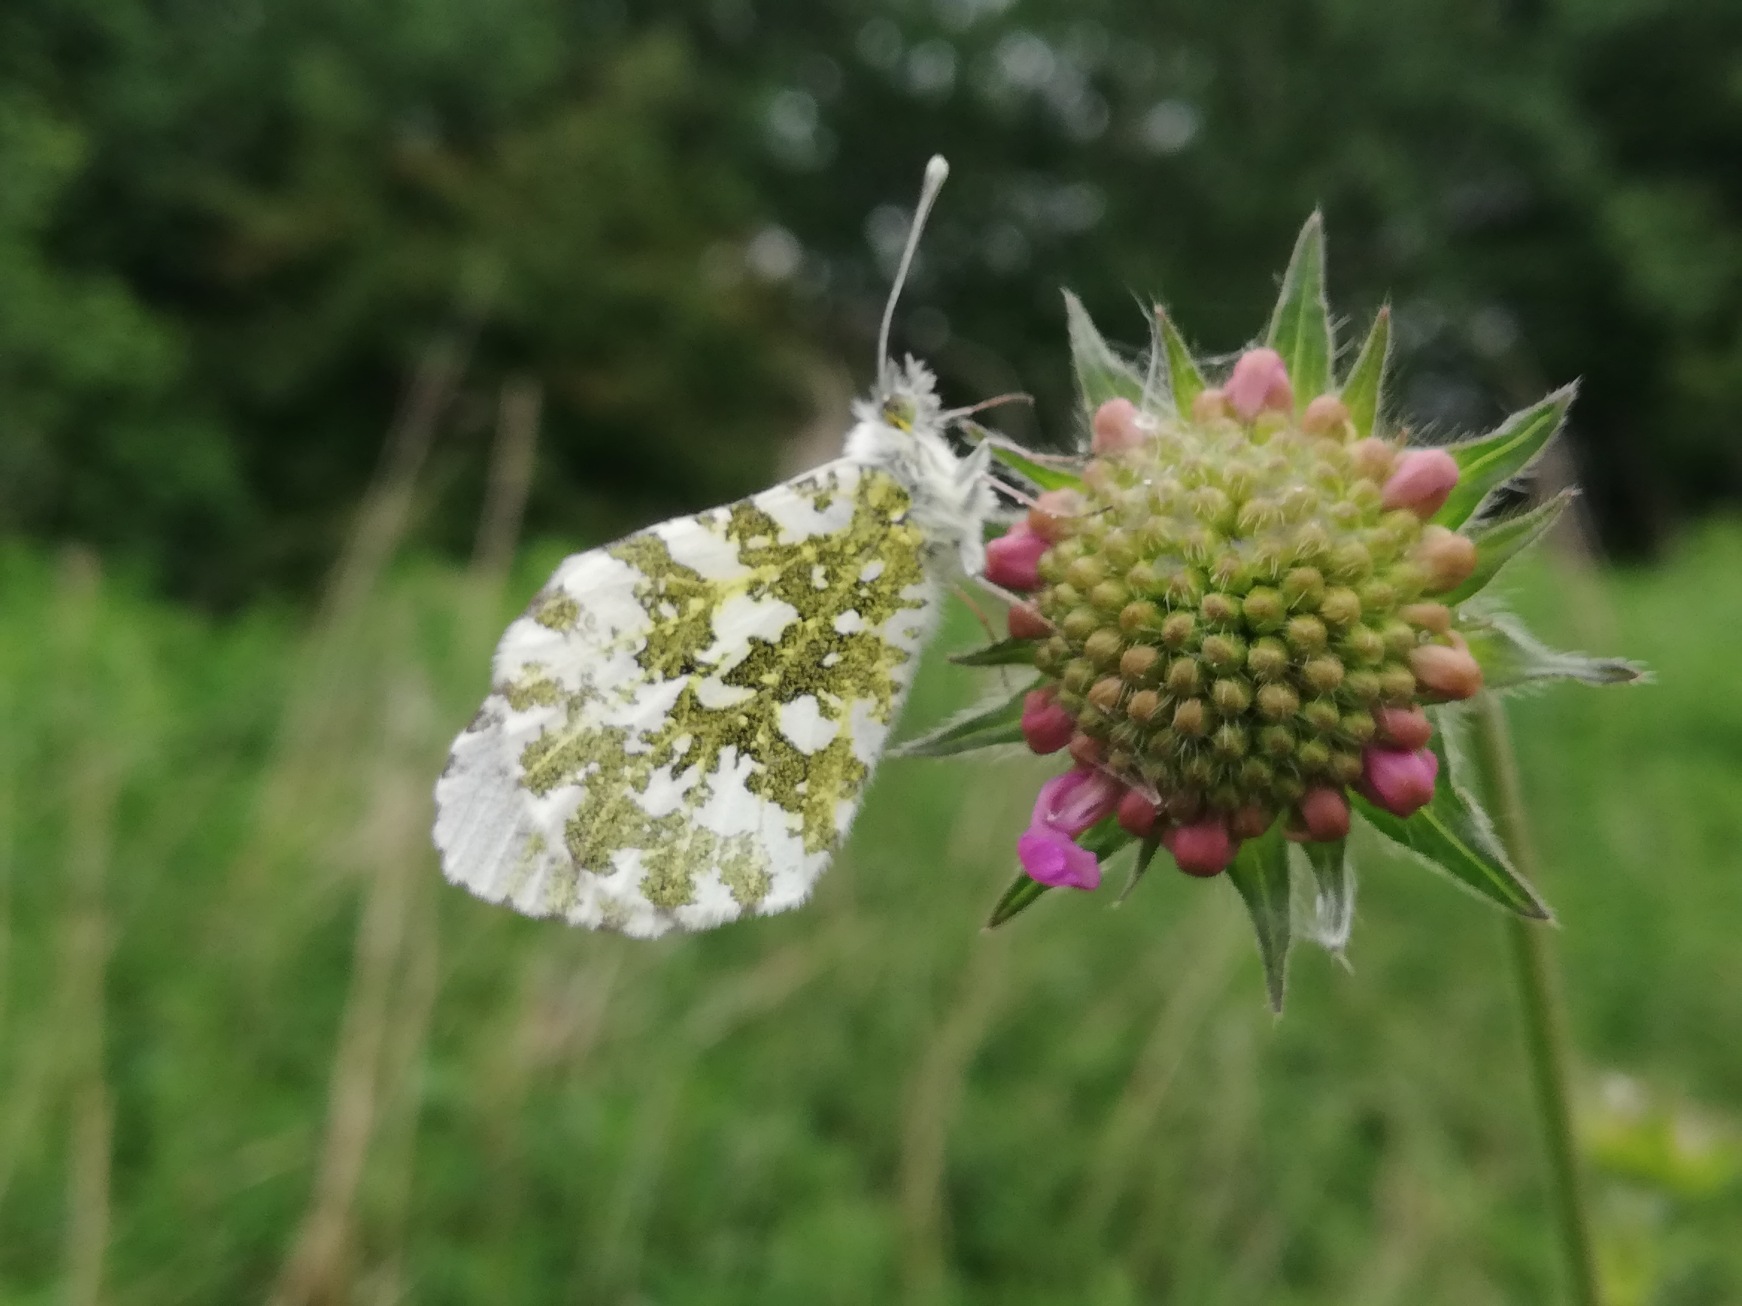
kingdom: Animalia
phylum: Arthropoda
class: Insecta
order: Lepidoptera
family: Pieridae
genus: Anthocharis
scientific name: Anthocharis cardamines
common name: Aurora
